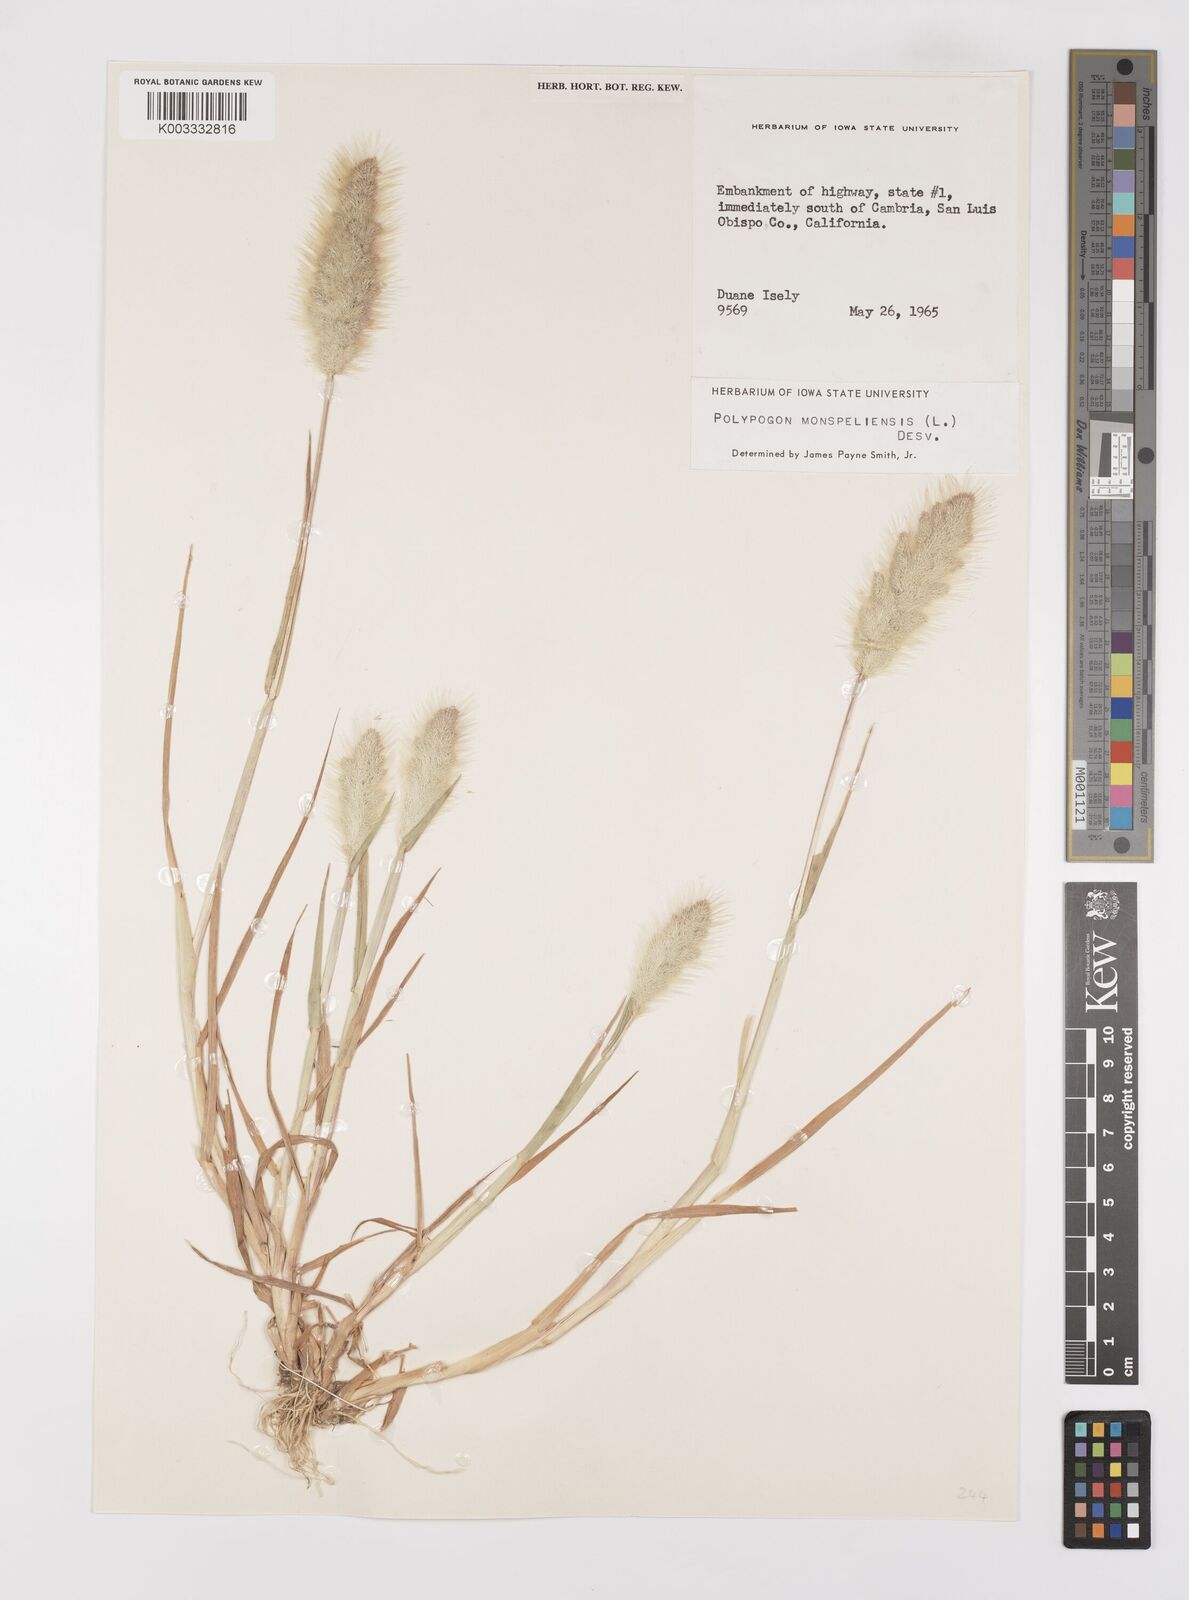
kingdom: Plantae
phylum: Tracheophyta
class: Liliopsida
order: Poales
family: Poaceae
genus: Polypogon
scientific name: Polypogon monspeliensis
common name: Annual rabbitsfoot grass
